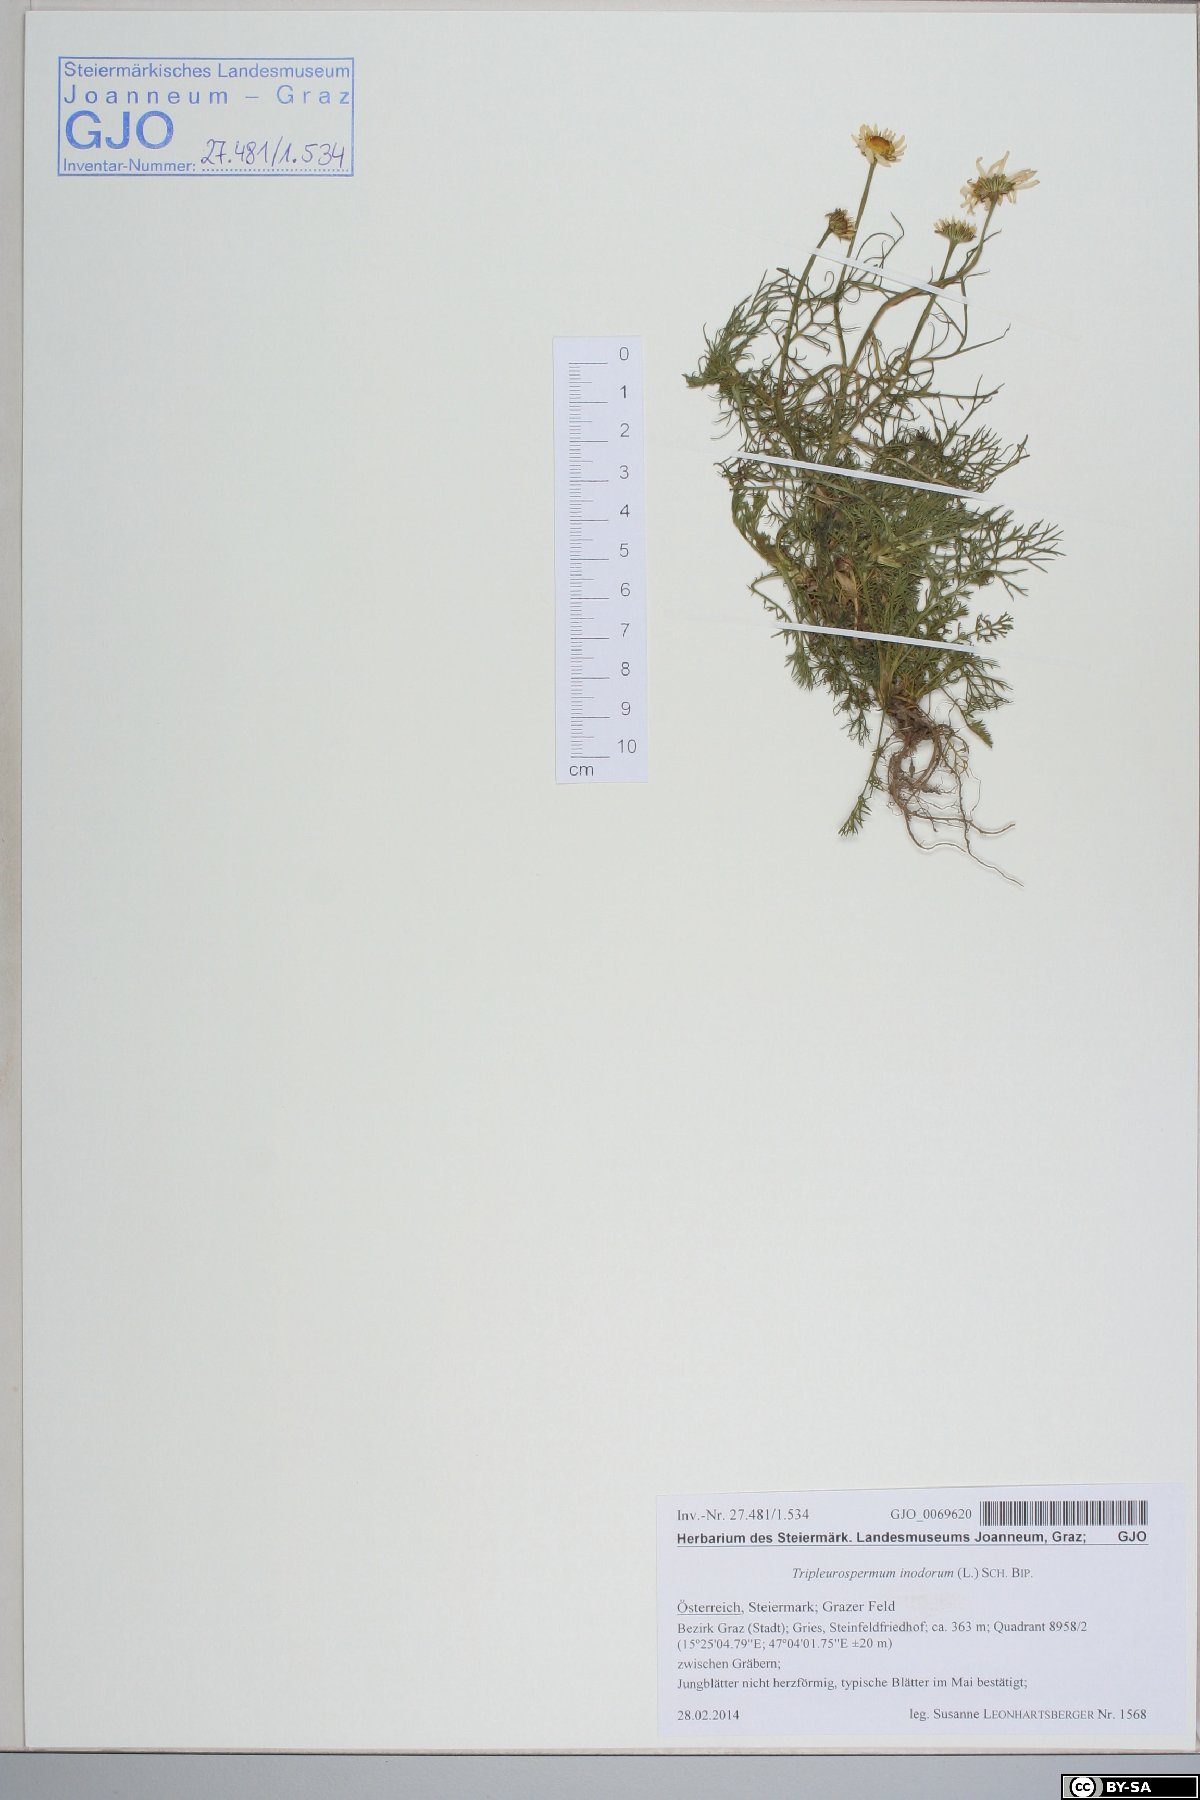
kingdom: Plantae
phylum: Tracheophyta
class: Magnoliopsida
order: Asterales
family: Asteraceae
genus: Tripleurospermum
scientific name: Tripleurospermum inodorum
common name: Scentless mayweed
